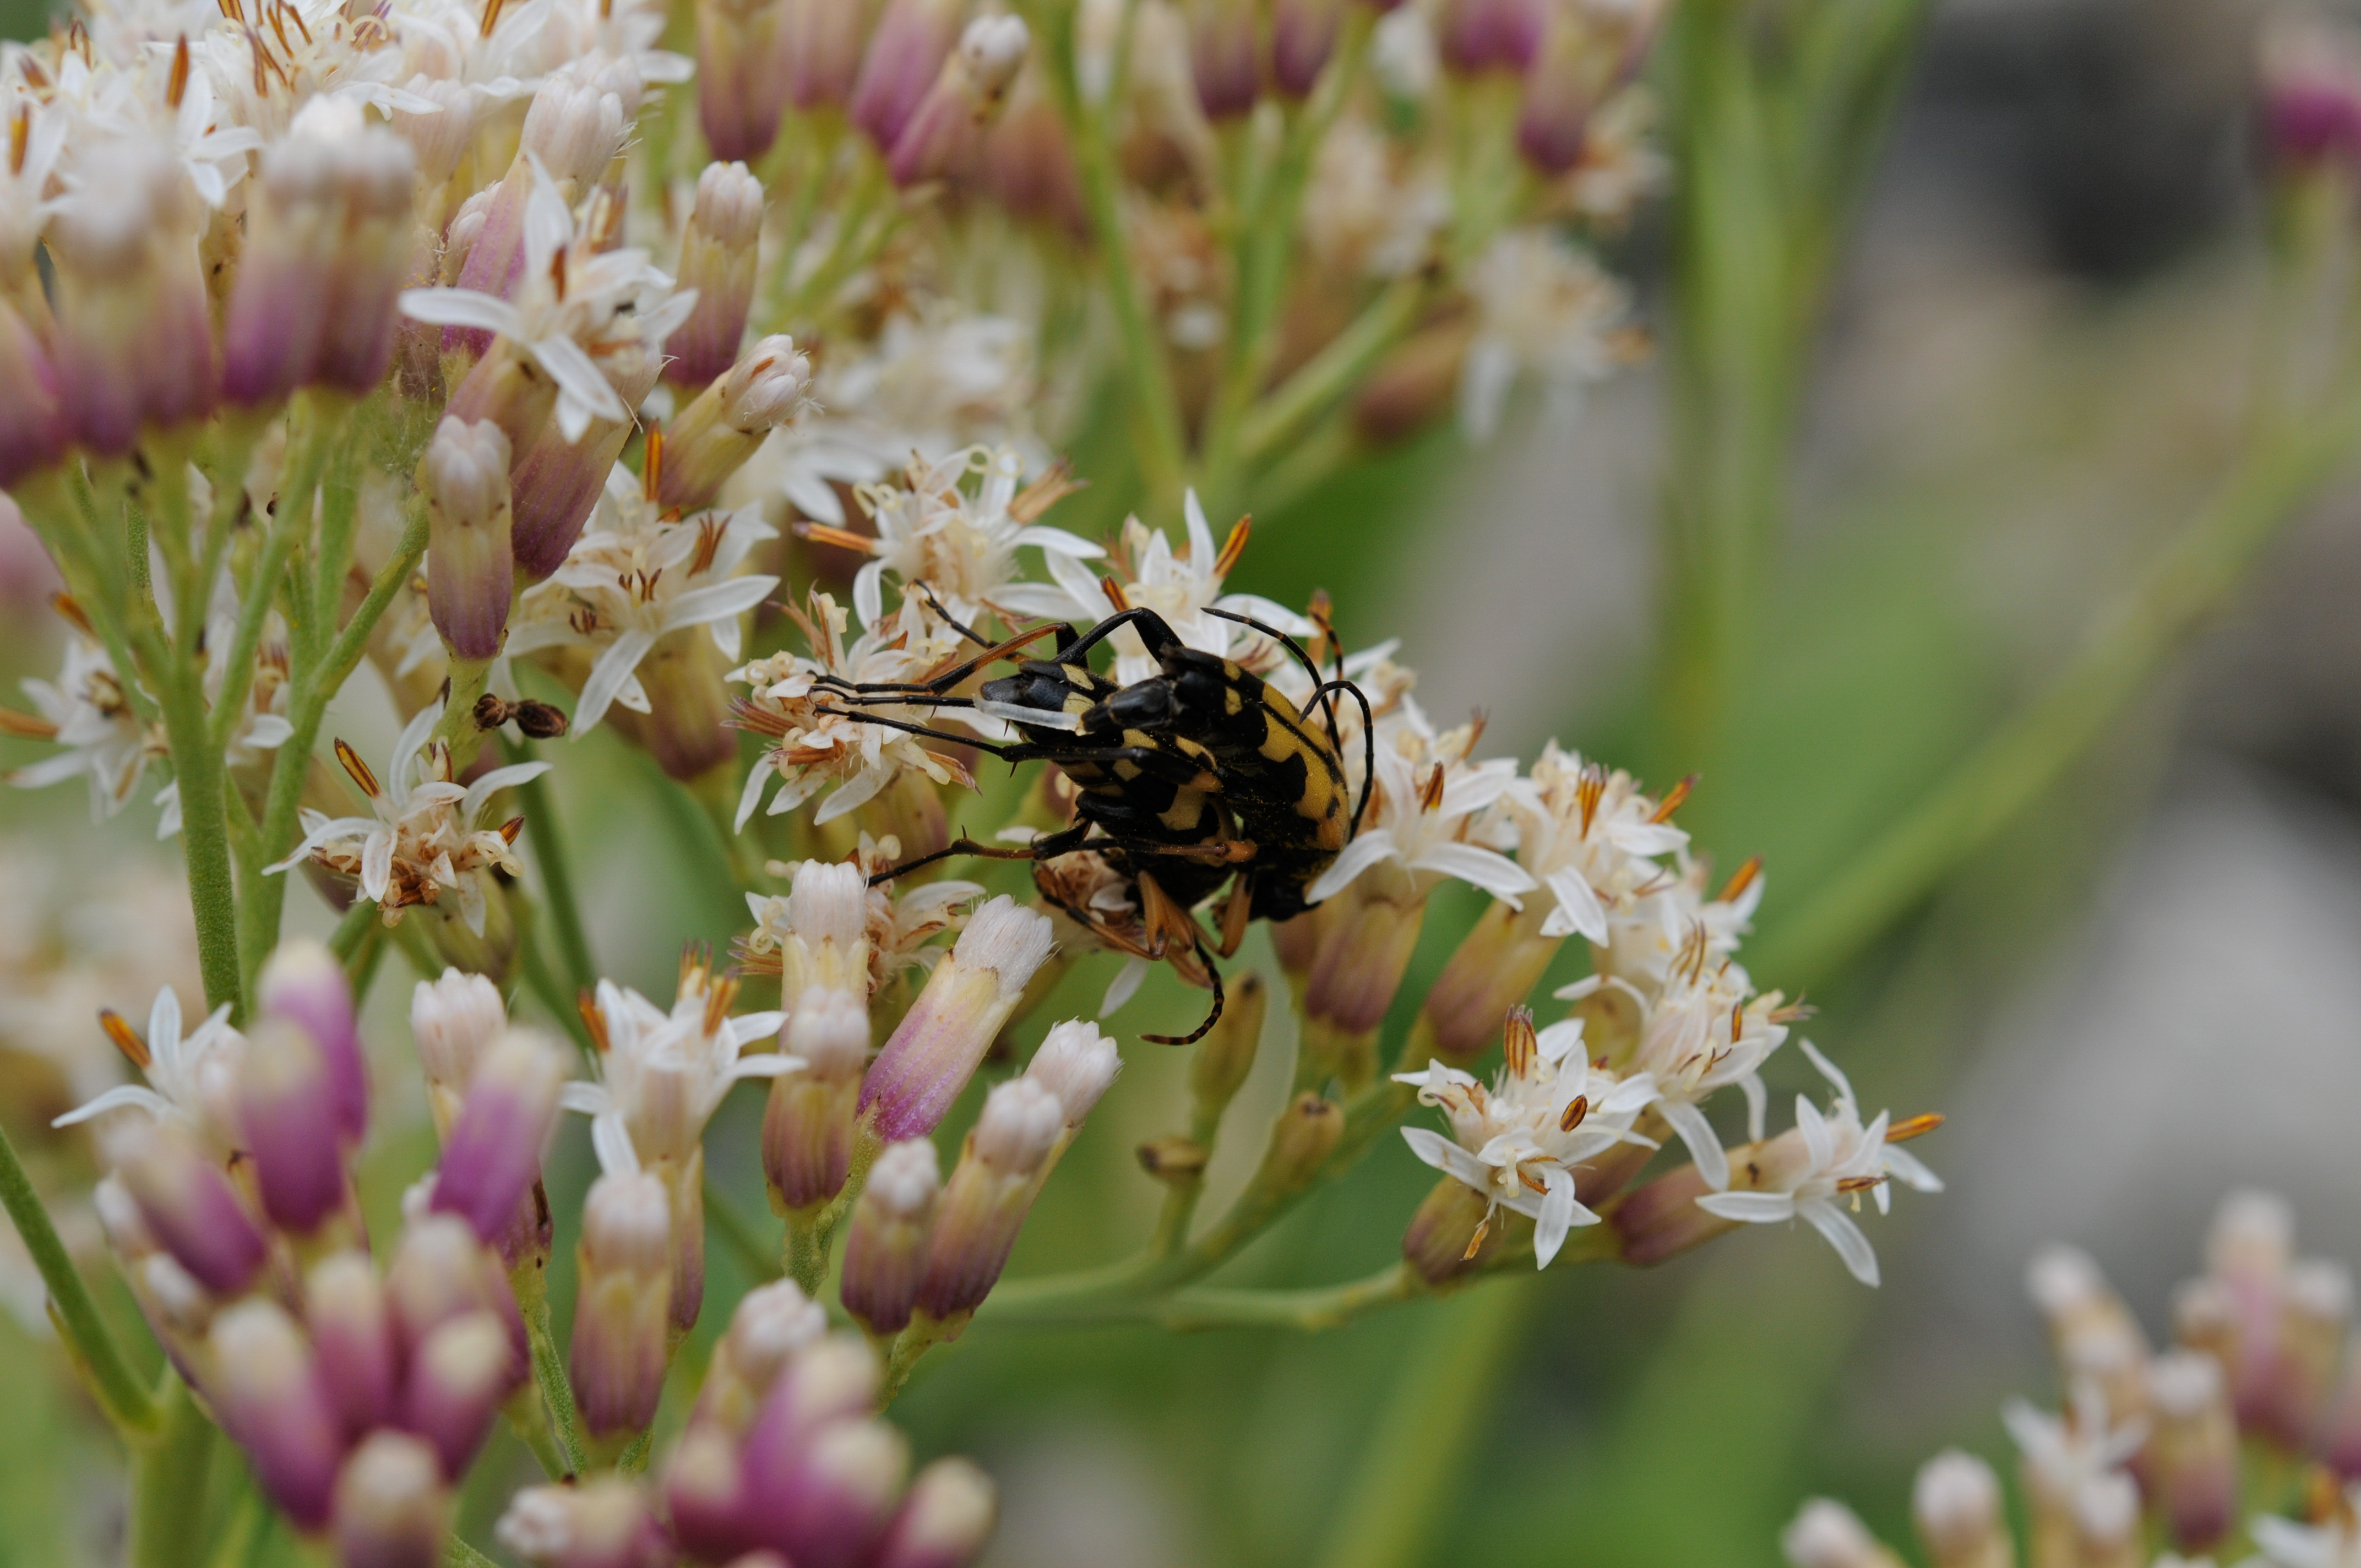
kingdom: Animalia
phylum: Arthropoda
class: Insecta
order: Coleoptera
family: Cerambycidae
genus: Rutpela
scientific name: Rutpela maculata
